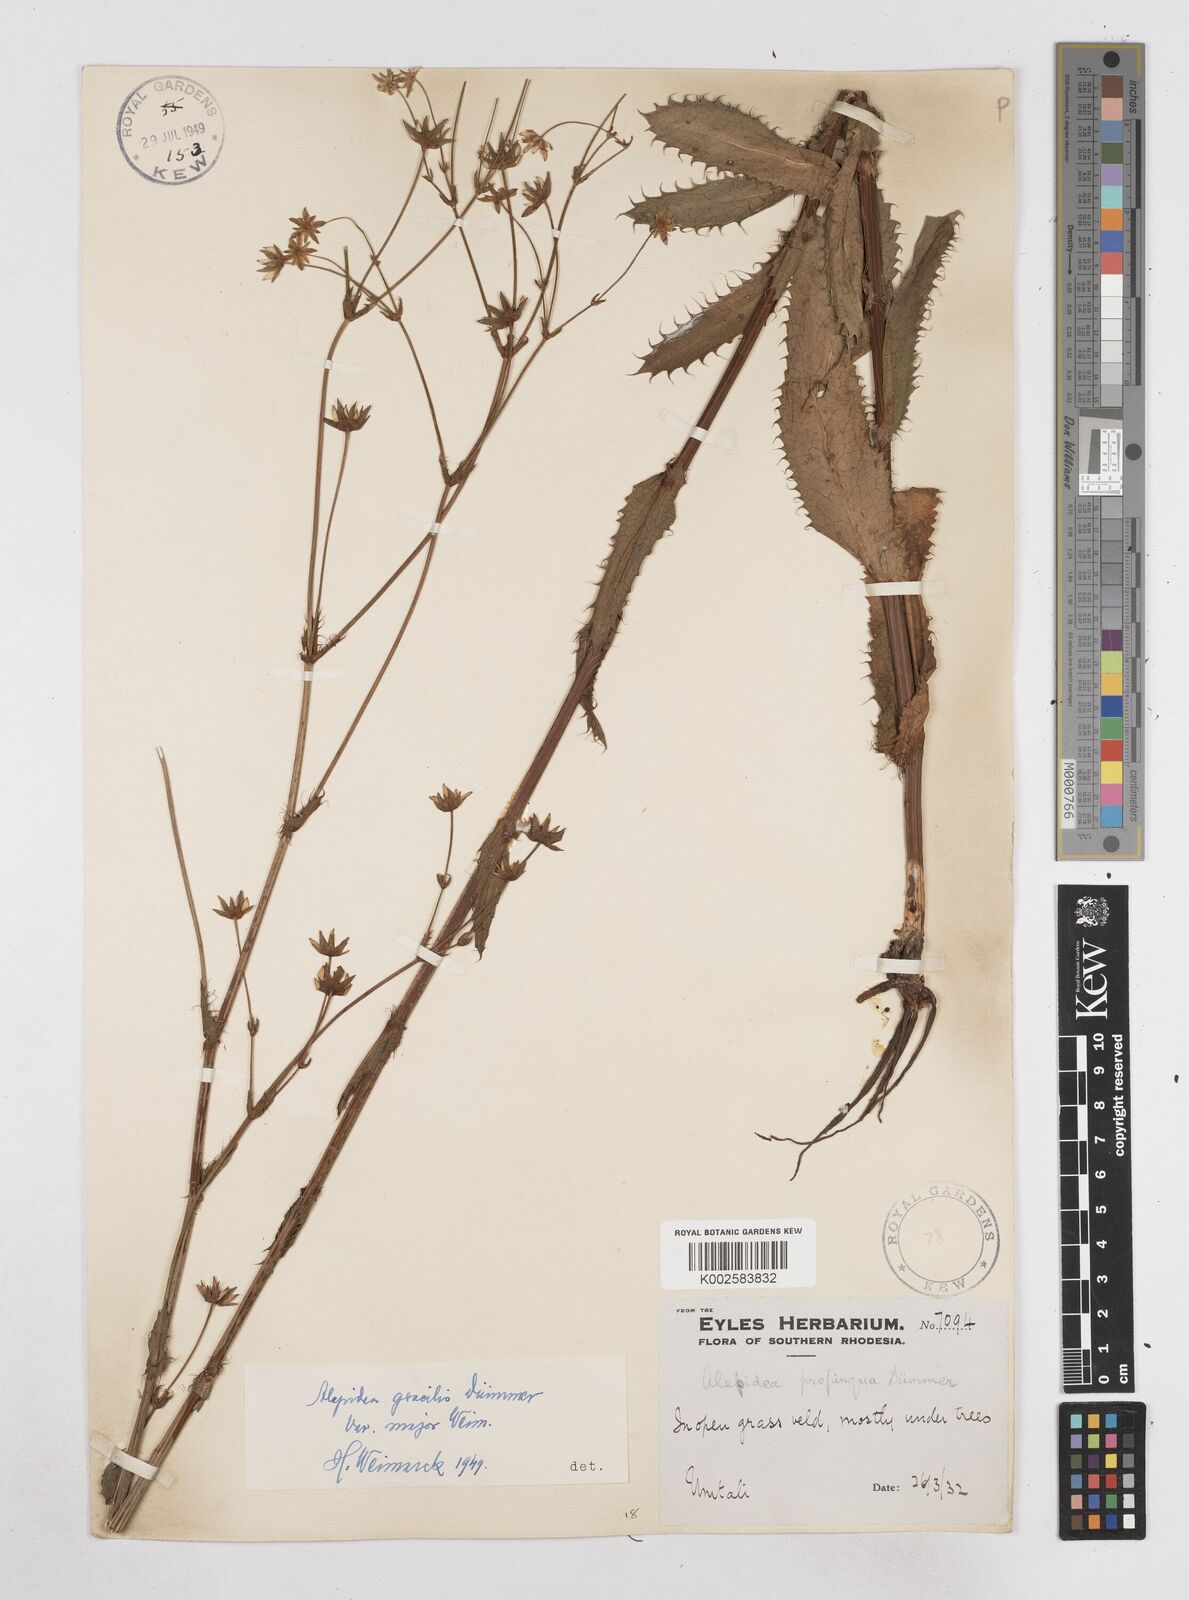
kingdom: Plantae
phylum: Tracheophyta
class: Magnoliopsida
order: Apiales
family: Apiaceae
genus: Alepidea
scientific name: Alepidea peduncularis
